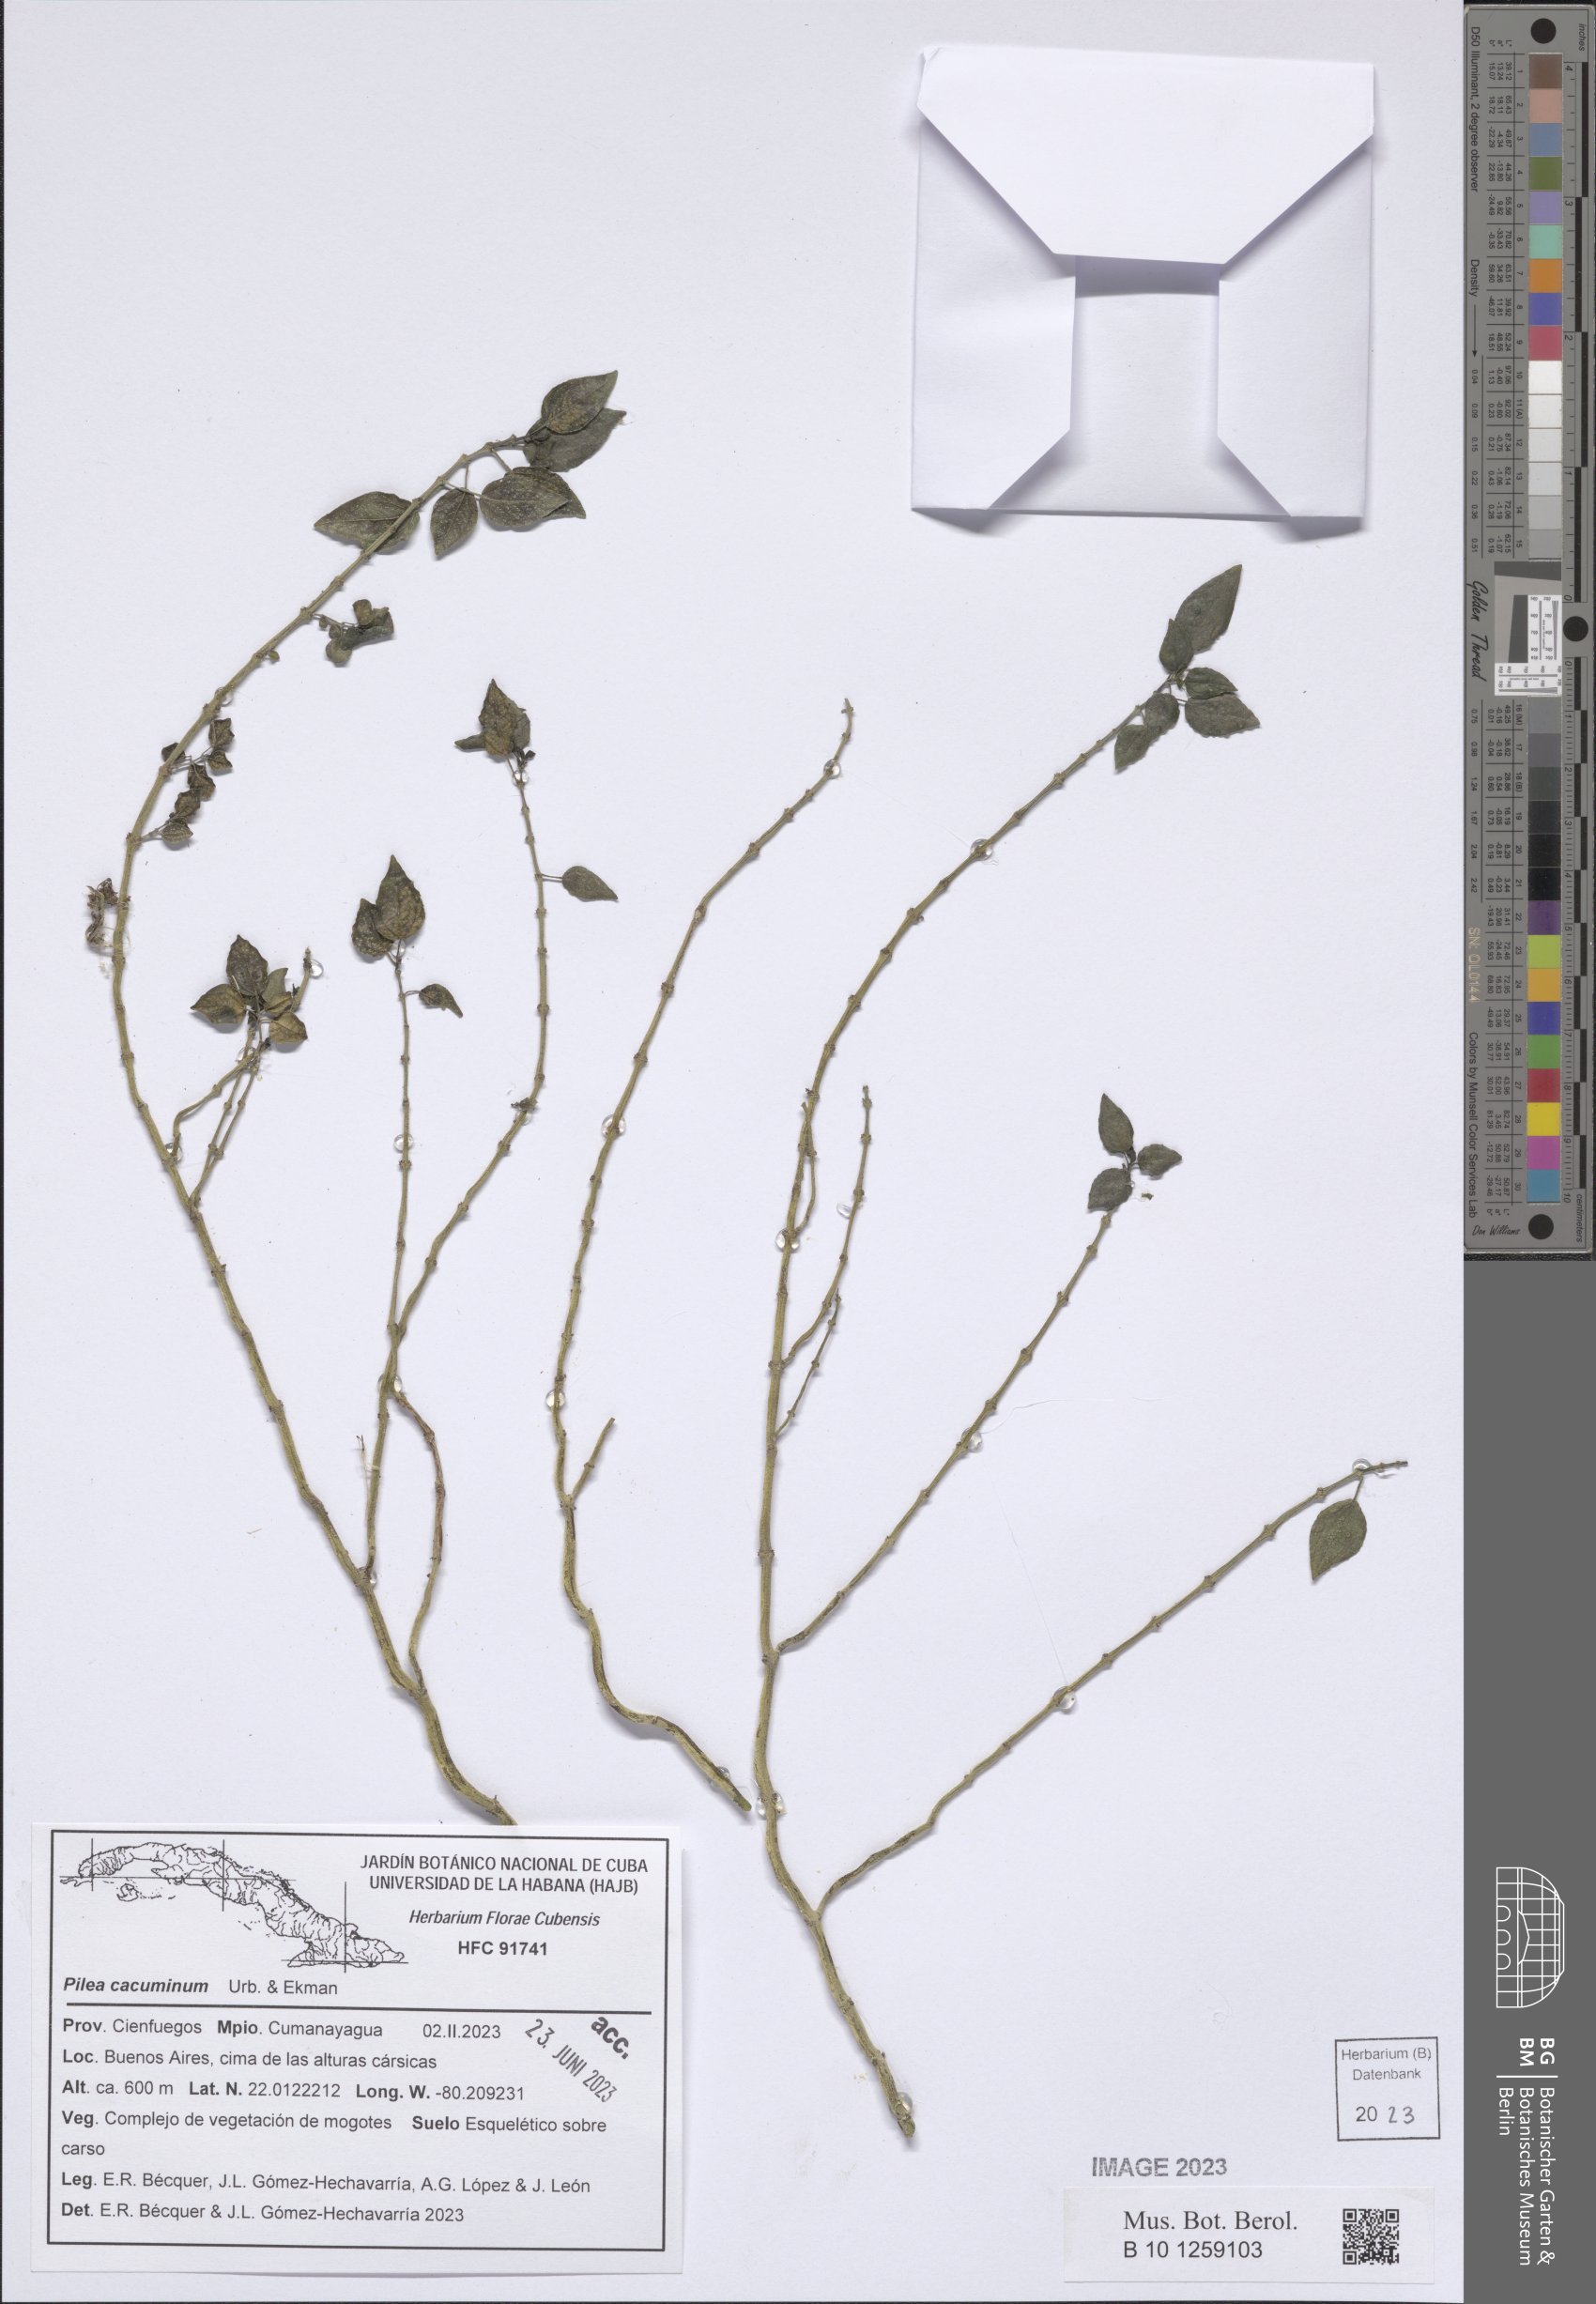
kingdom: Plantae
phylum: Tracheophyta
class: Magnoliopsida
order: Rosales
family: Urticaceae
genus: Pilea
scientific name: Pilea cacuminum
